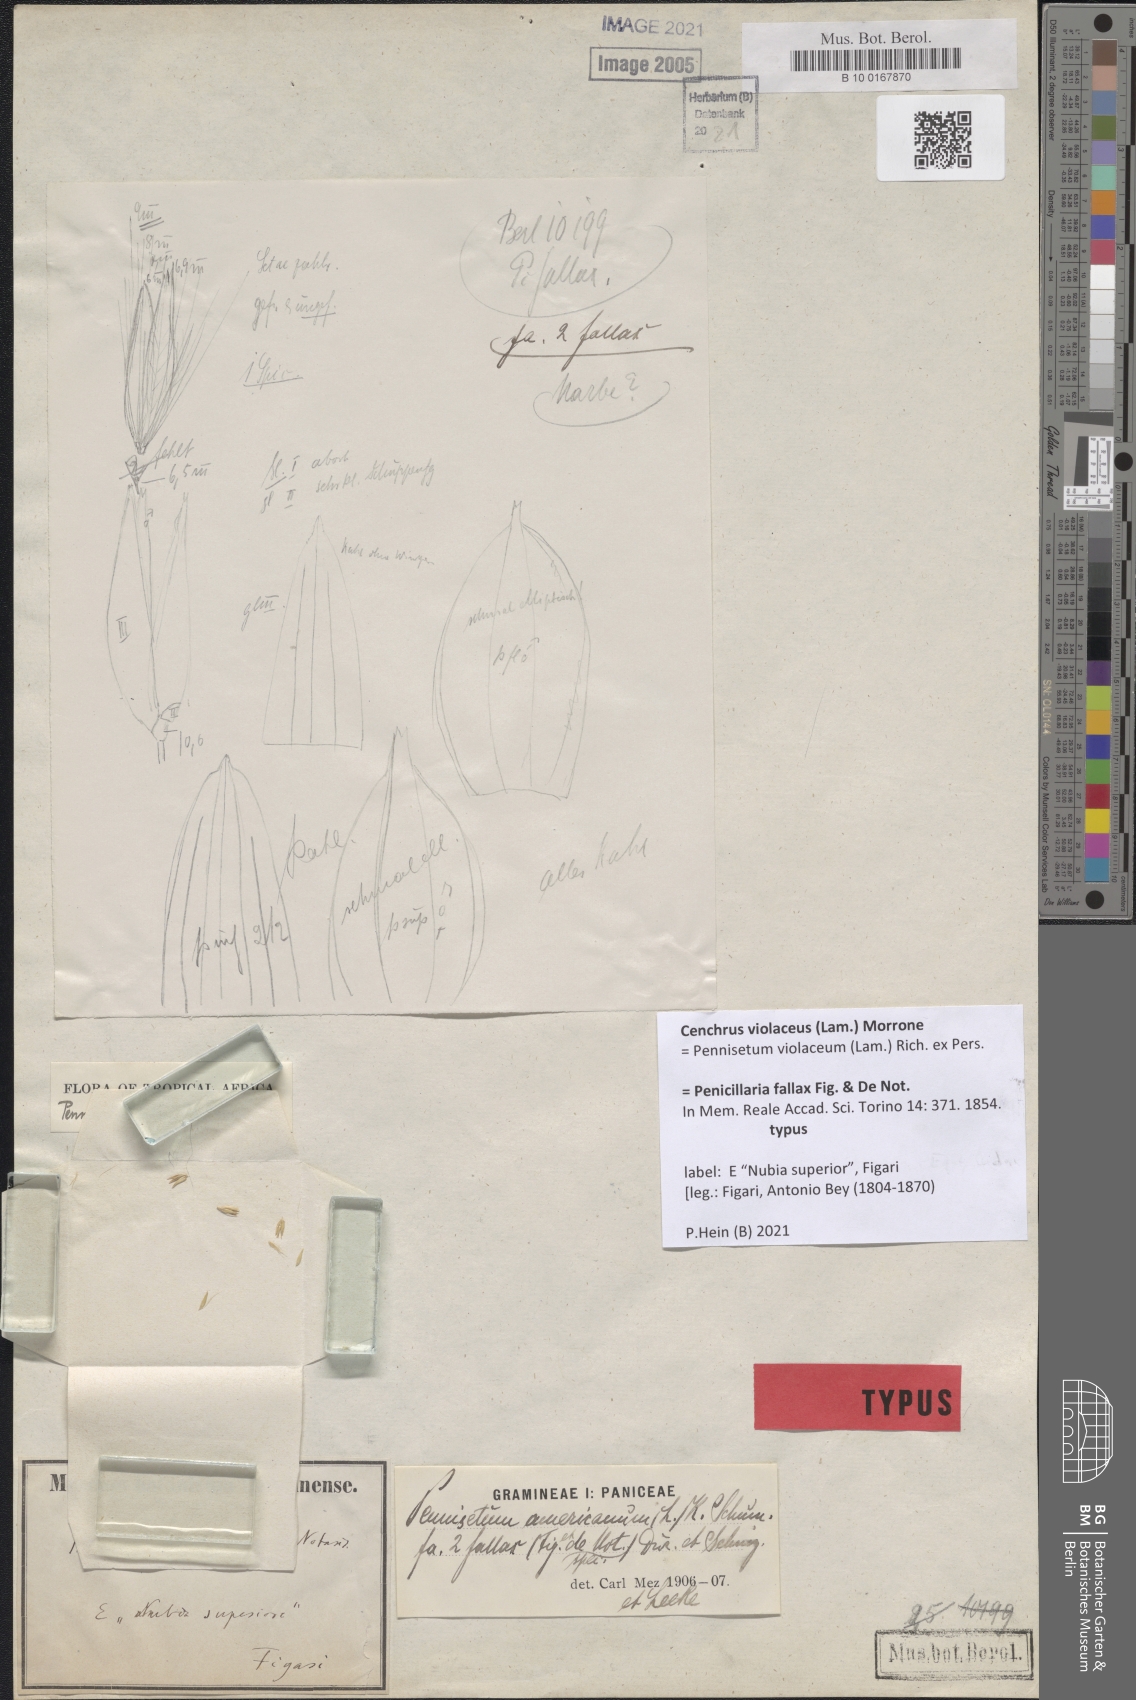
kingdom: Plantae
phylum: Tracheophyta
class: Liliopsida
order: Poales
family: Poaceae
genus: Cenchrus
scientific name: Cenchrus violaceus
